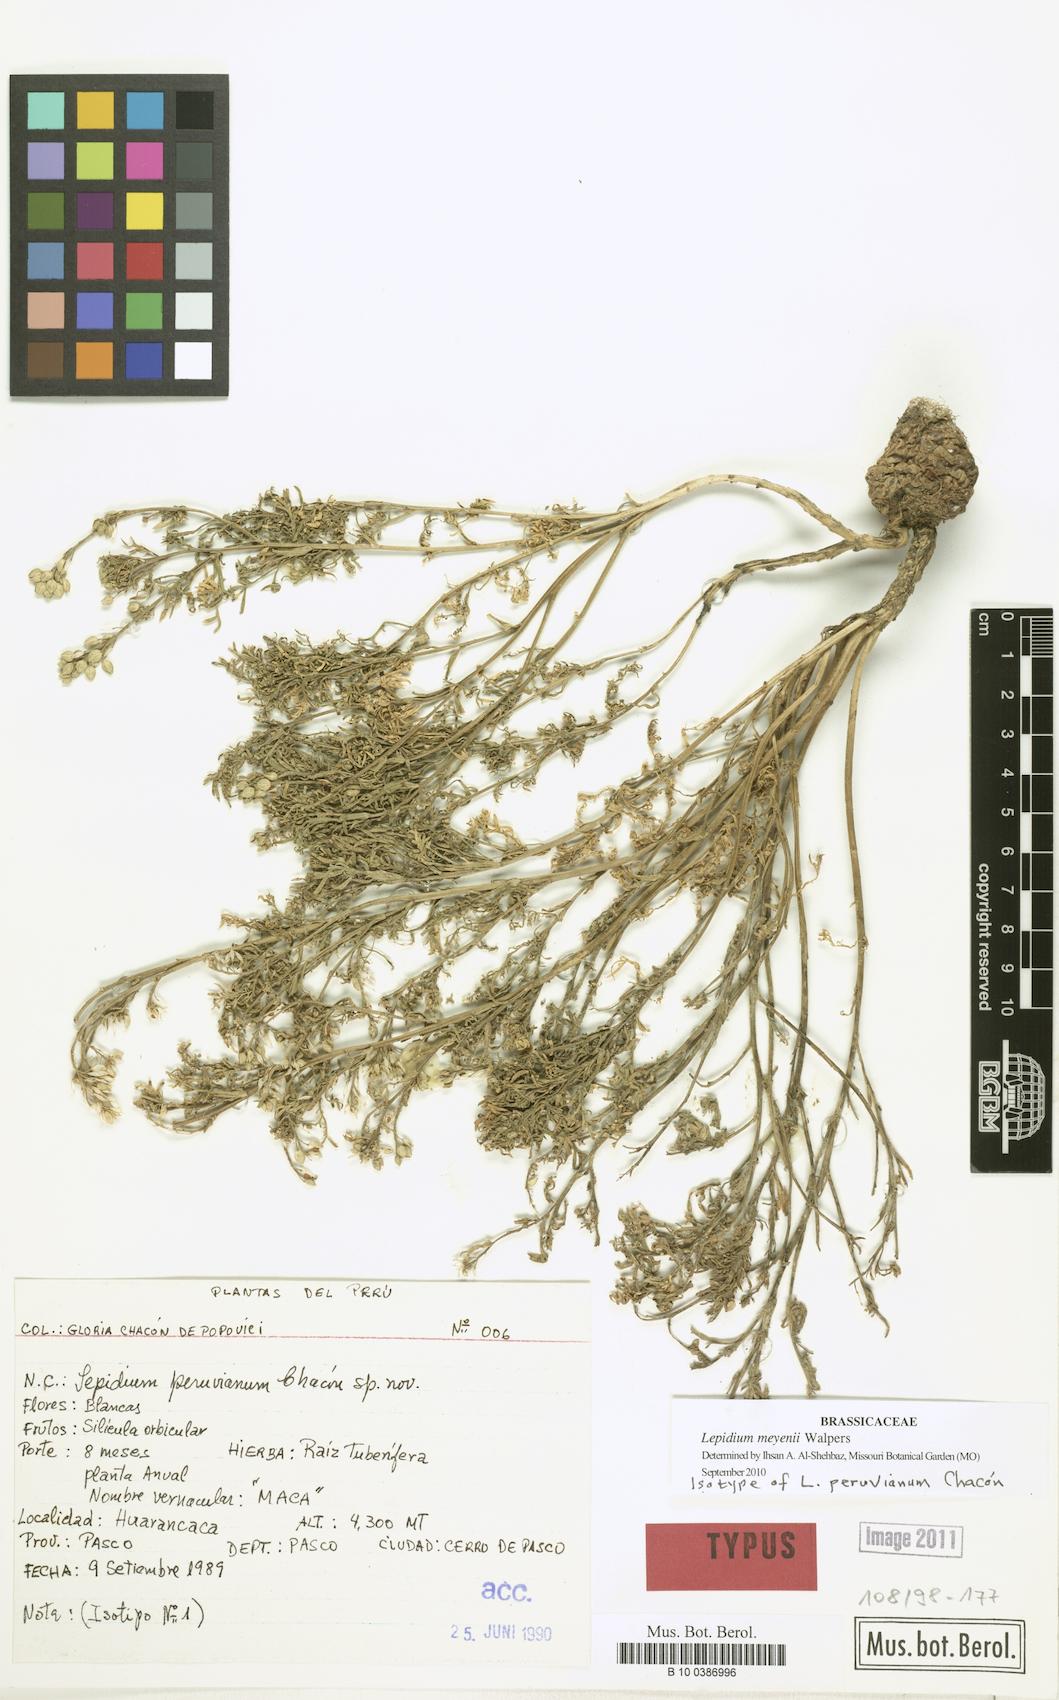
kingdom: Plantae
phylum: Tracheophyta
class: Magnoliopsida
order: Brassicales
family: Brassicaceae
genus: Lepidium
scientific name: Lepidium meyenii
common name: Peruvian-ginseng
